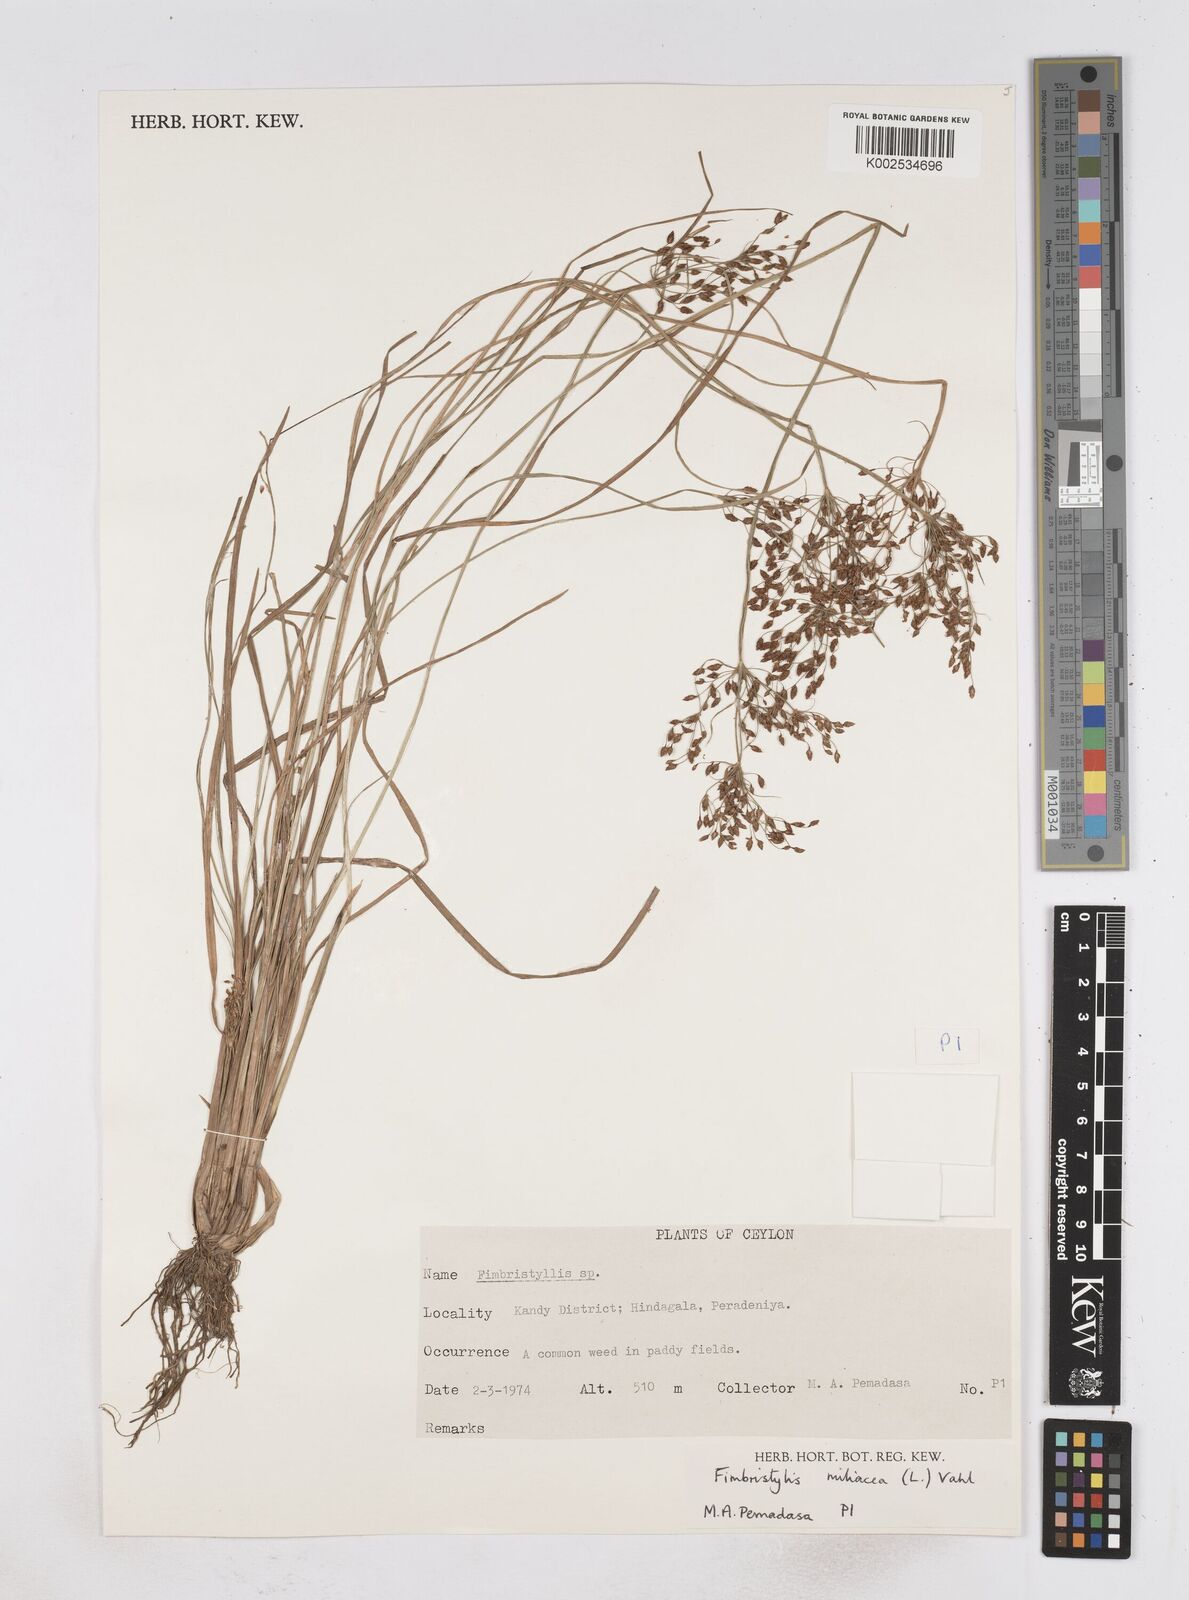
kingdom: Plantae
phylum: Tracheophyta
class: Liliopsida
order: Poales
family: Cyperaceae
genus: Fimbristylis
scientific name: Fimbristylis littoralis
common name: Fimbry
